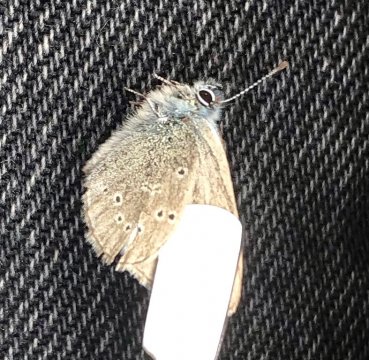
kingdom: Animalia
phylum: Arthropoda
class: Insecta
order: Lepidoptera
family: Lycaenidae
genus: Glaucopsyche
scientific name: Glaucopsyche lygdamus
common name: Silvery Blue
